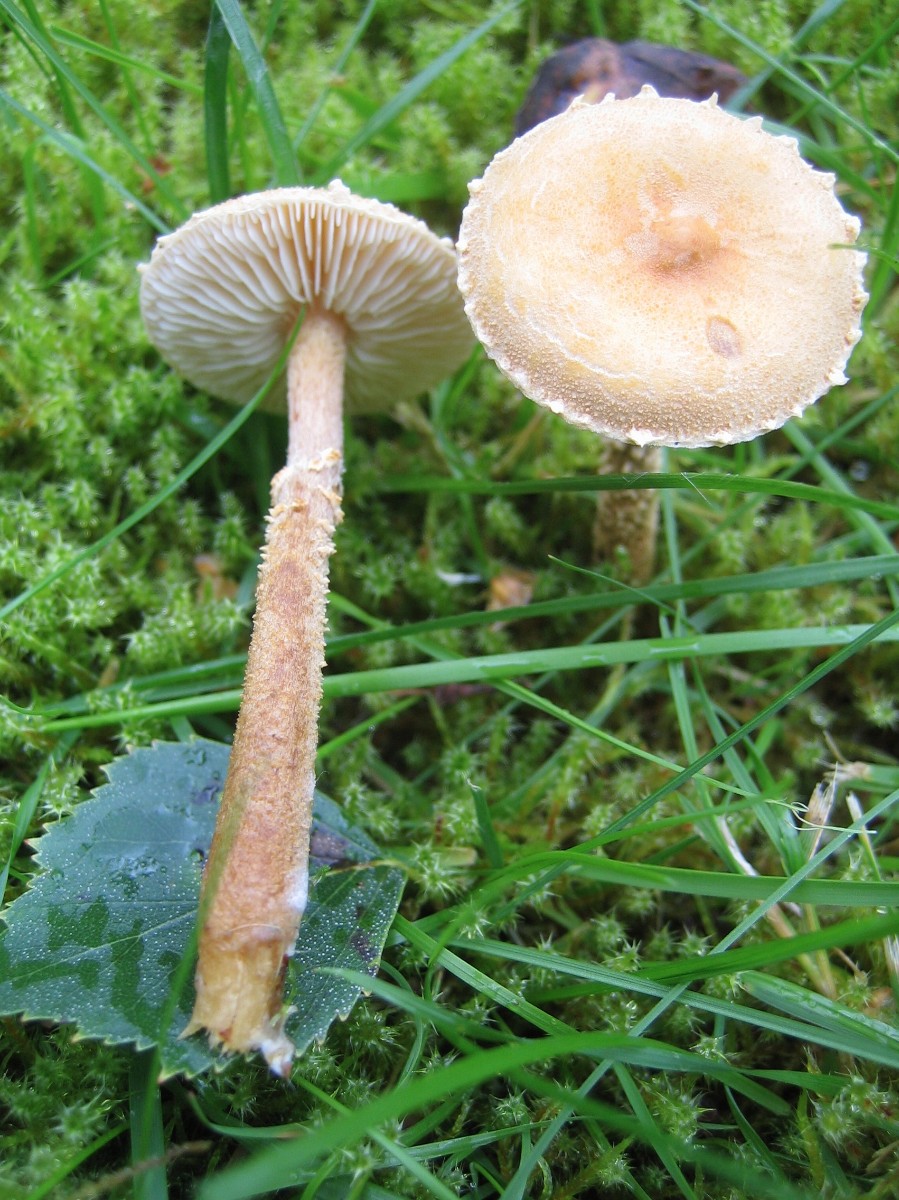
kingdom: Fungi
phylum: Basidiomycota
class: Agaricomycetes
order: Agaricales
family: Tricholomataceae
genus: Cystoderma
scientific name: Cystoderma amianthinum
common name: okkergul grynhat
